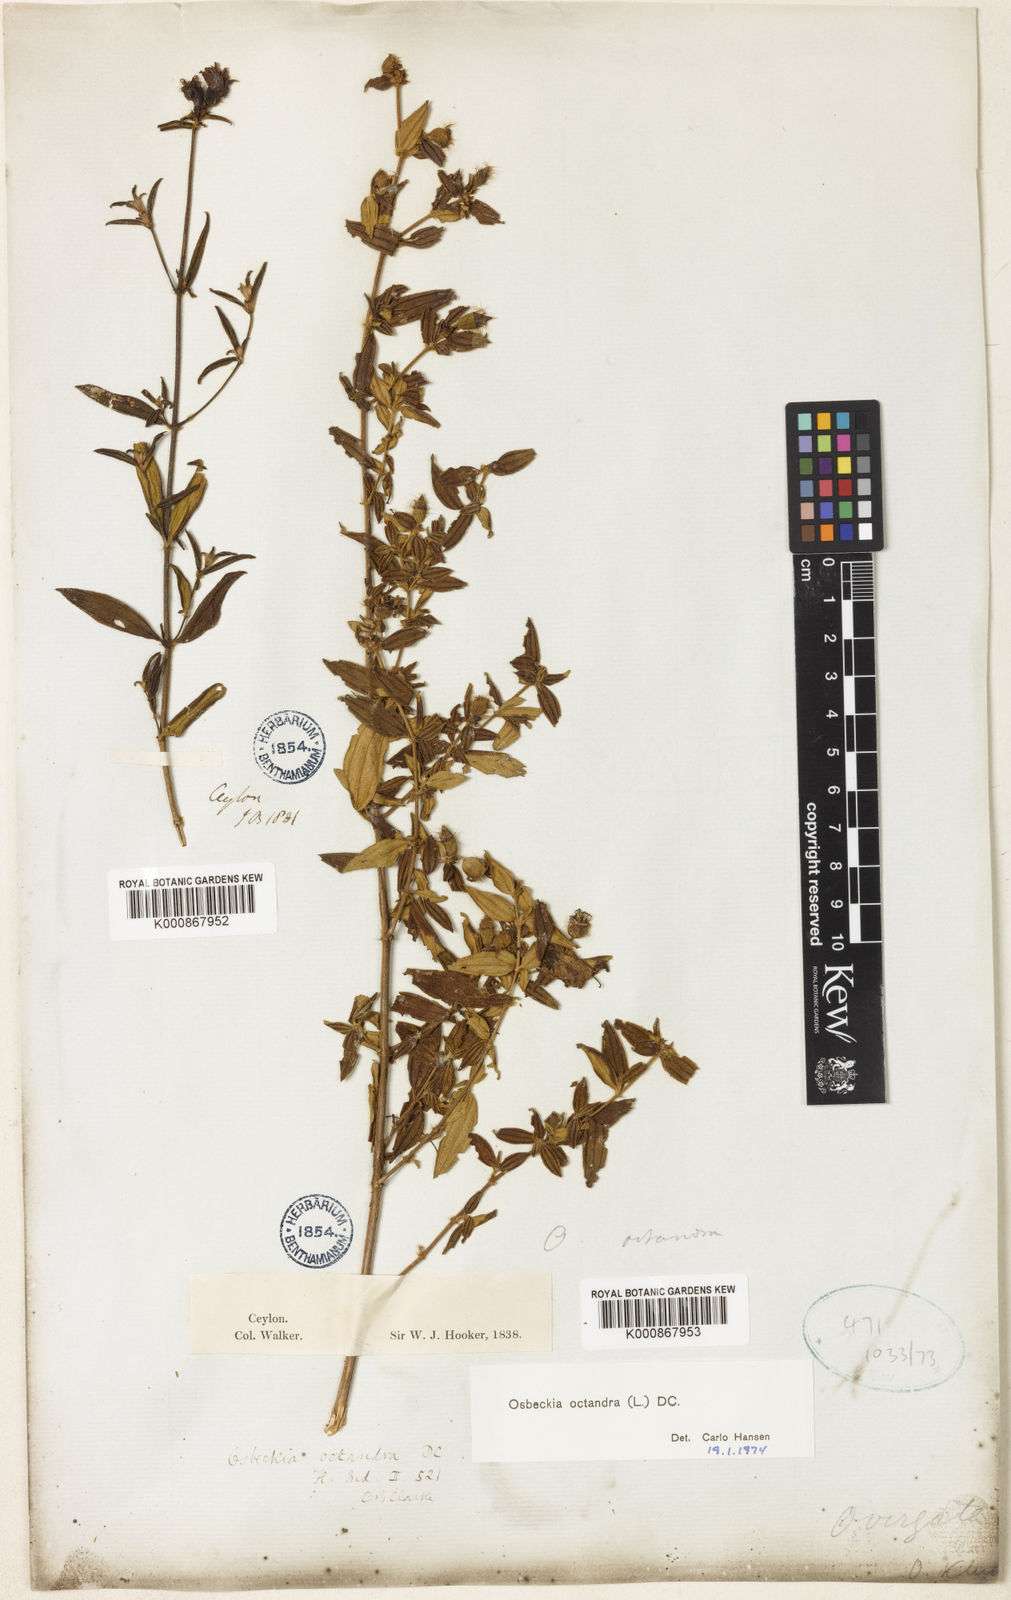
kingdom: Plantae
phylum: Tracheophyta
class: Magnoliopsida
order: Myrtales
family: Melastomataceae
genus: Osbeckia
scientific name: Osbeckia octandra
